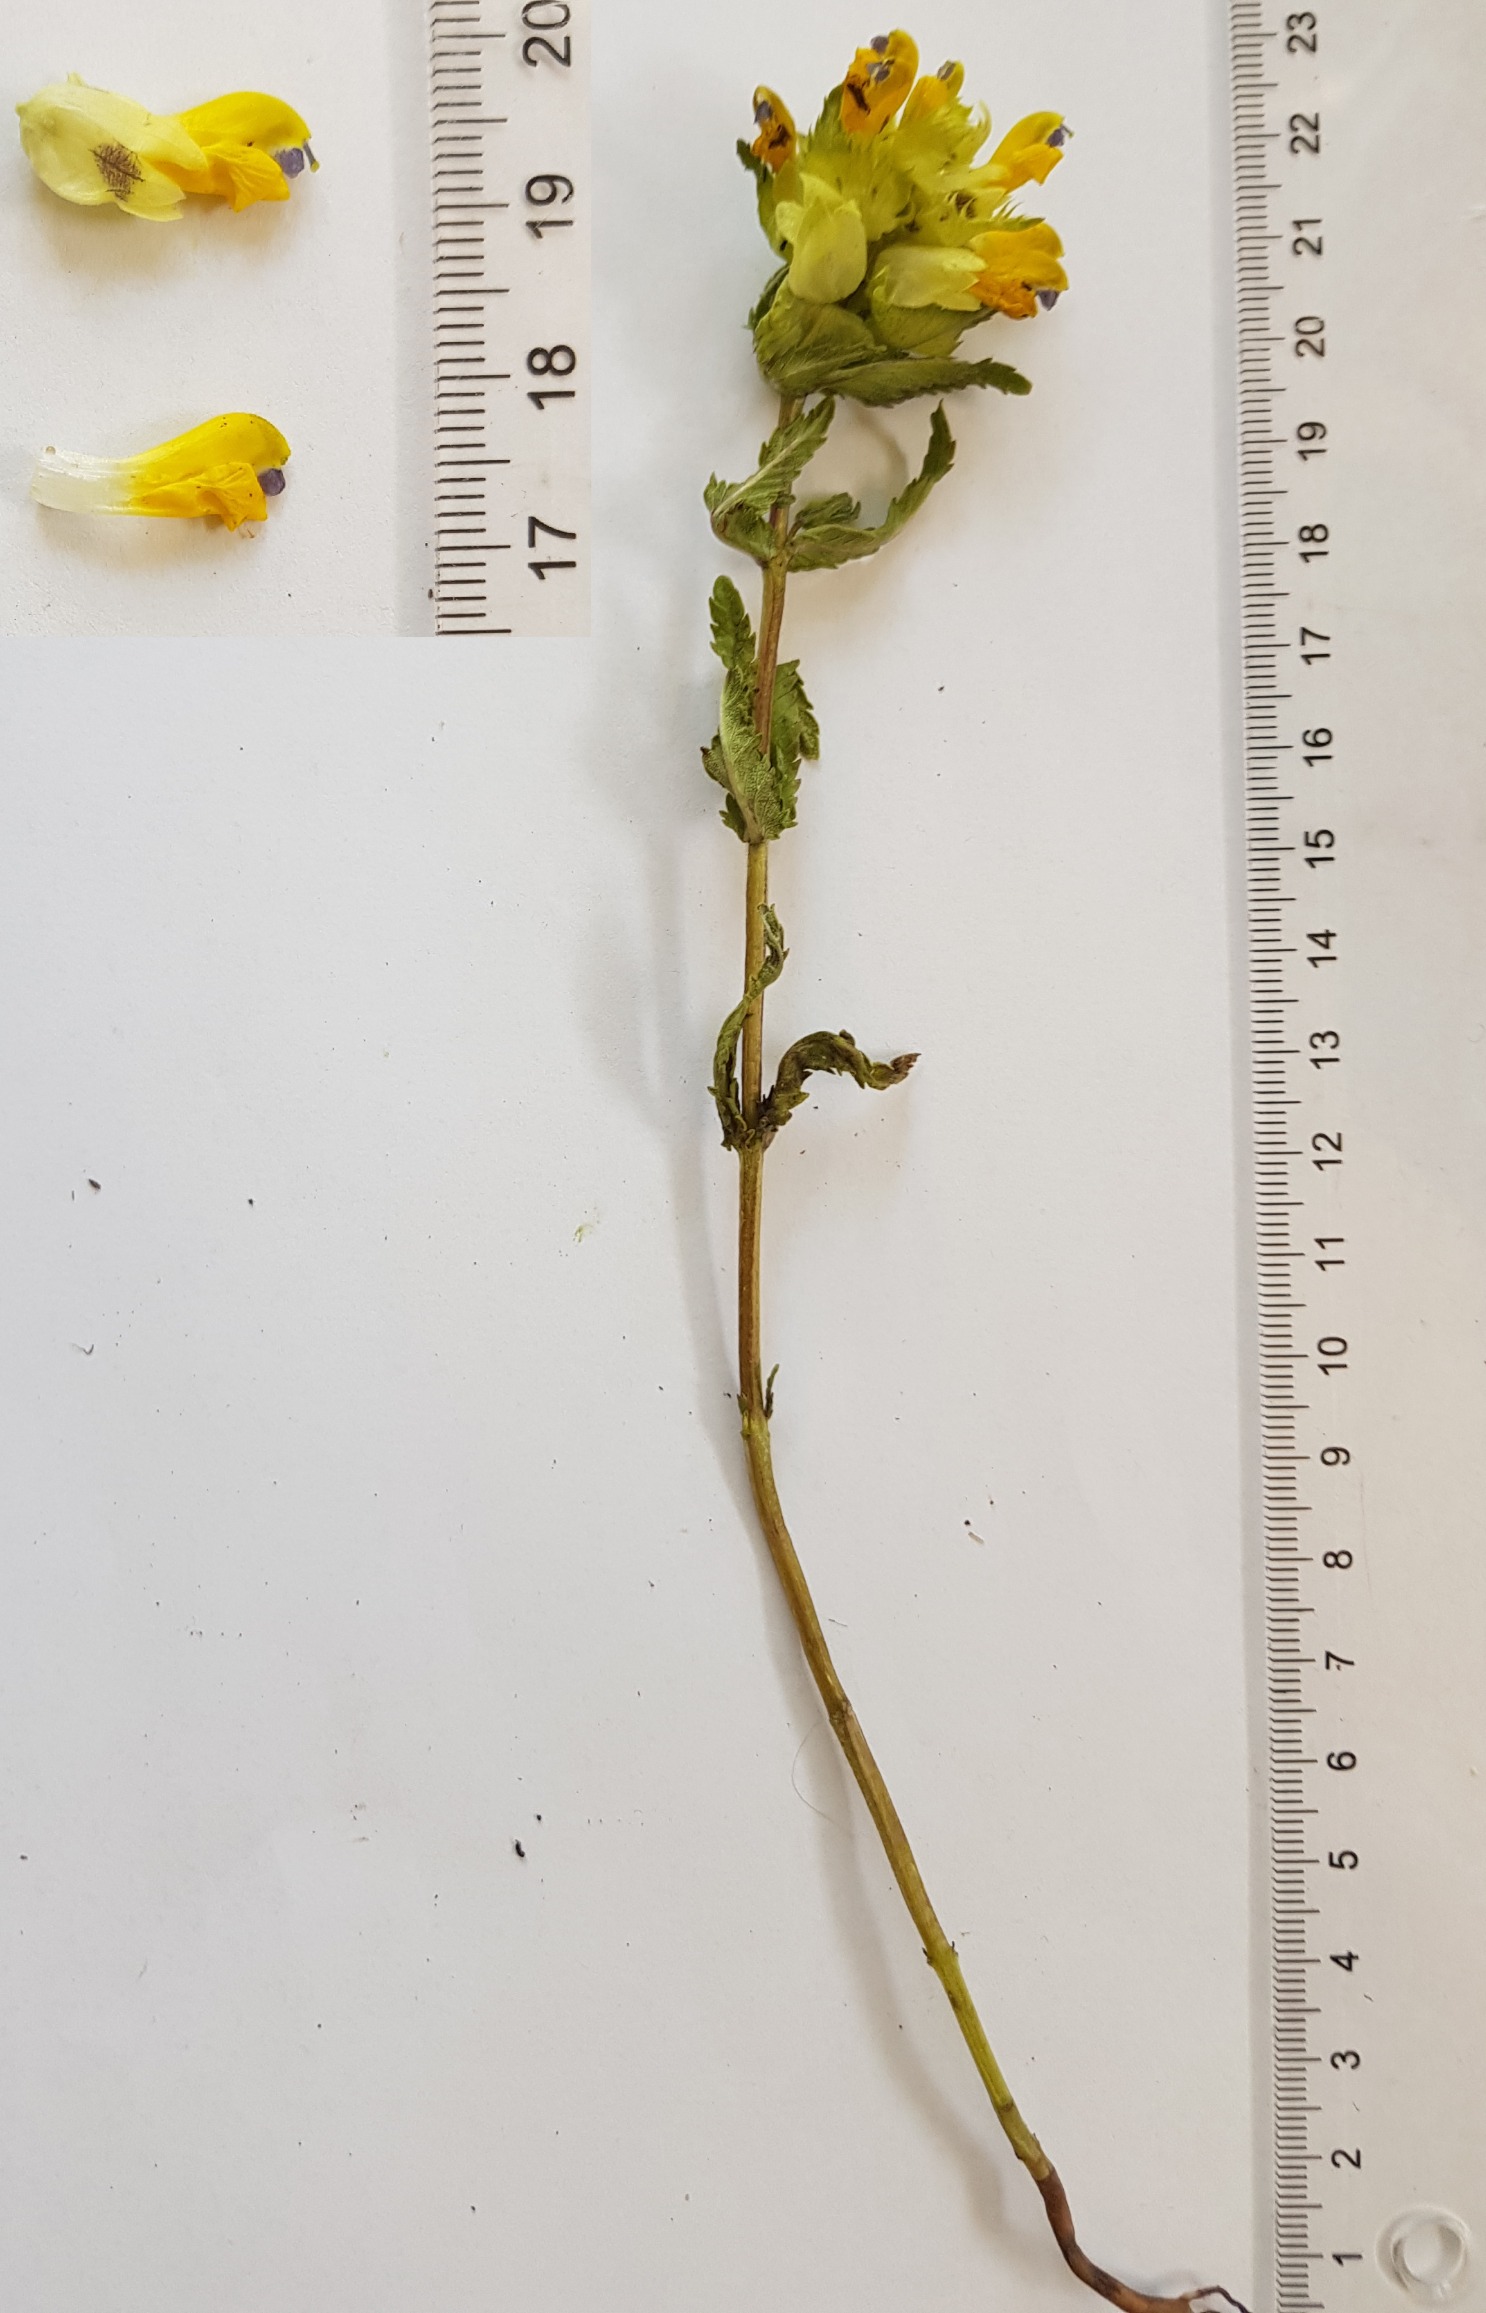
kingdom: Plantae
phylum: Tracheophyta
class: Magnoliopsida
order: Lamiales
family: Orobanchaceae
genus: Rhinanthus
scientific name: Rhinanthus
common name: Stor skjaller
